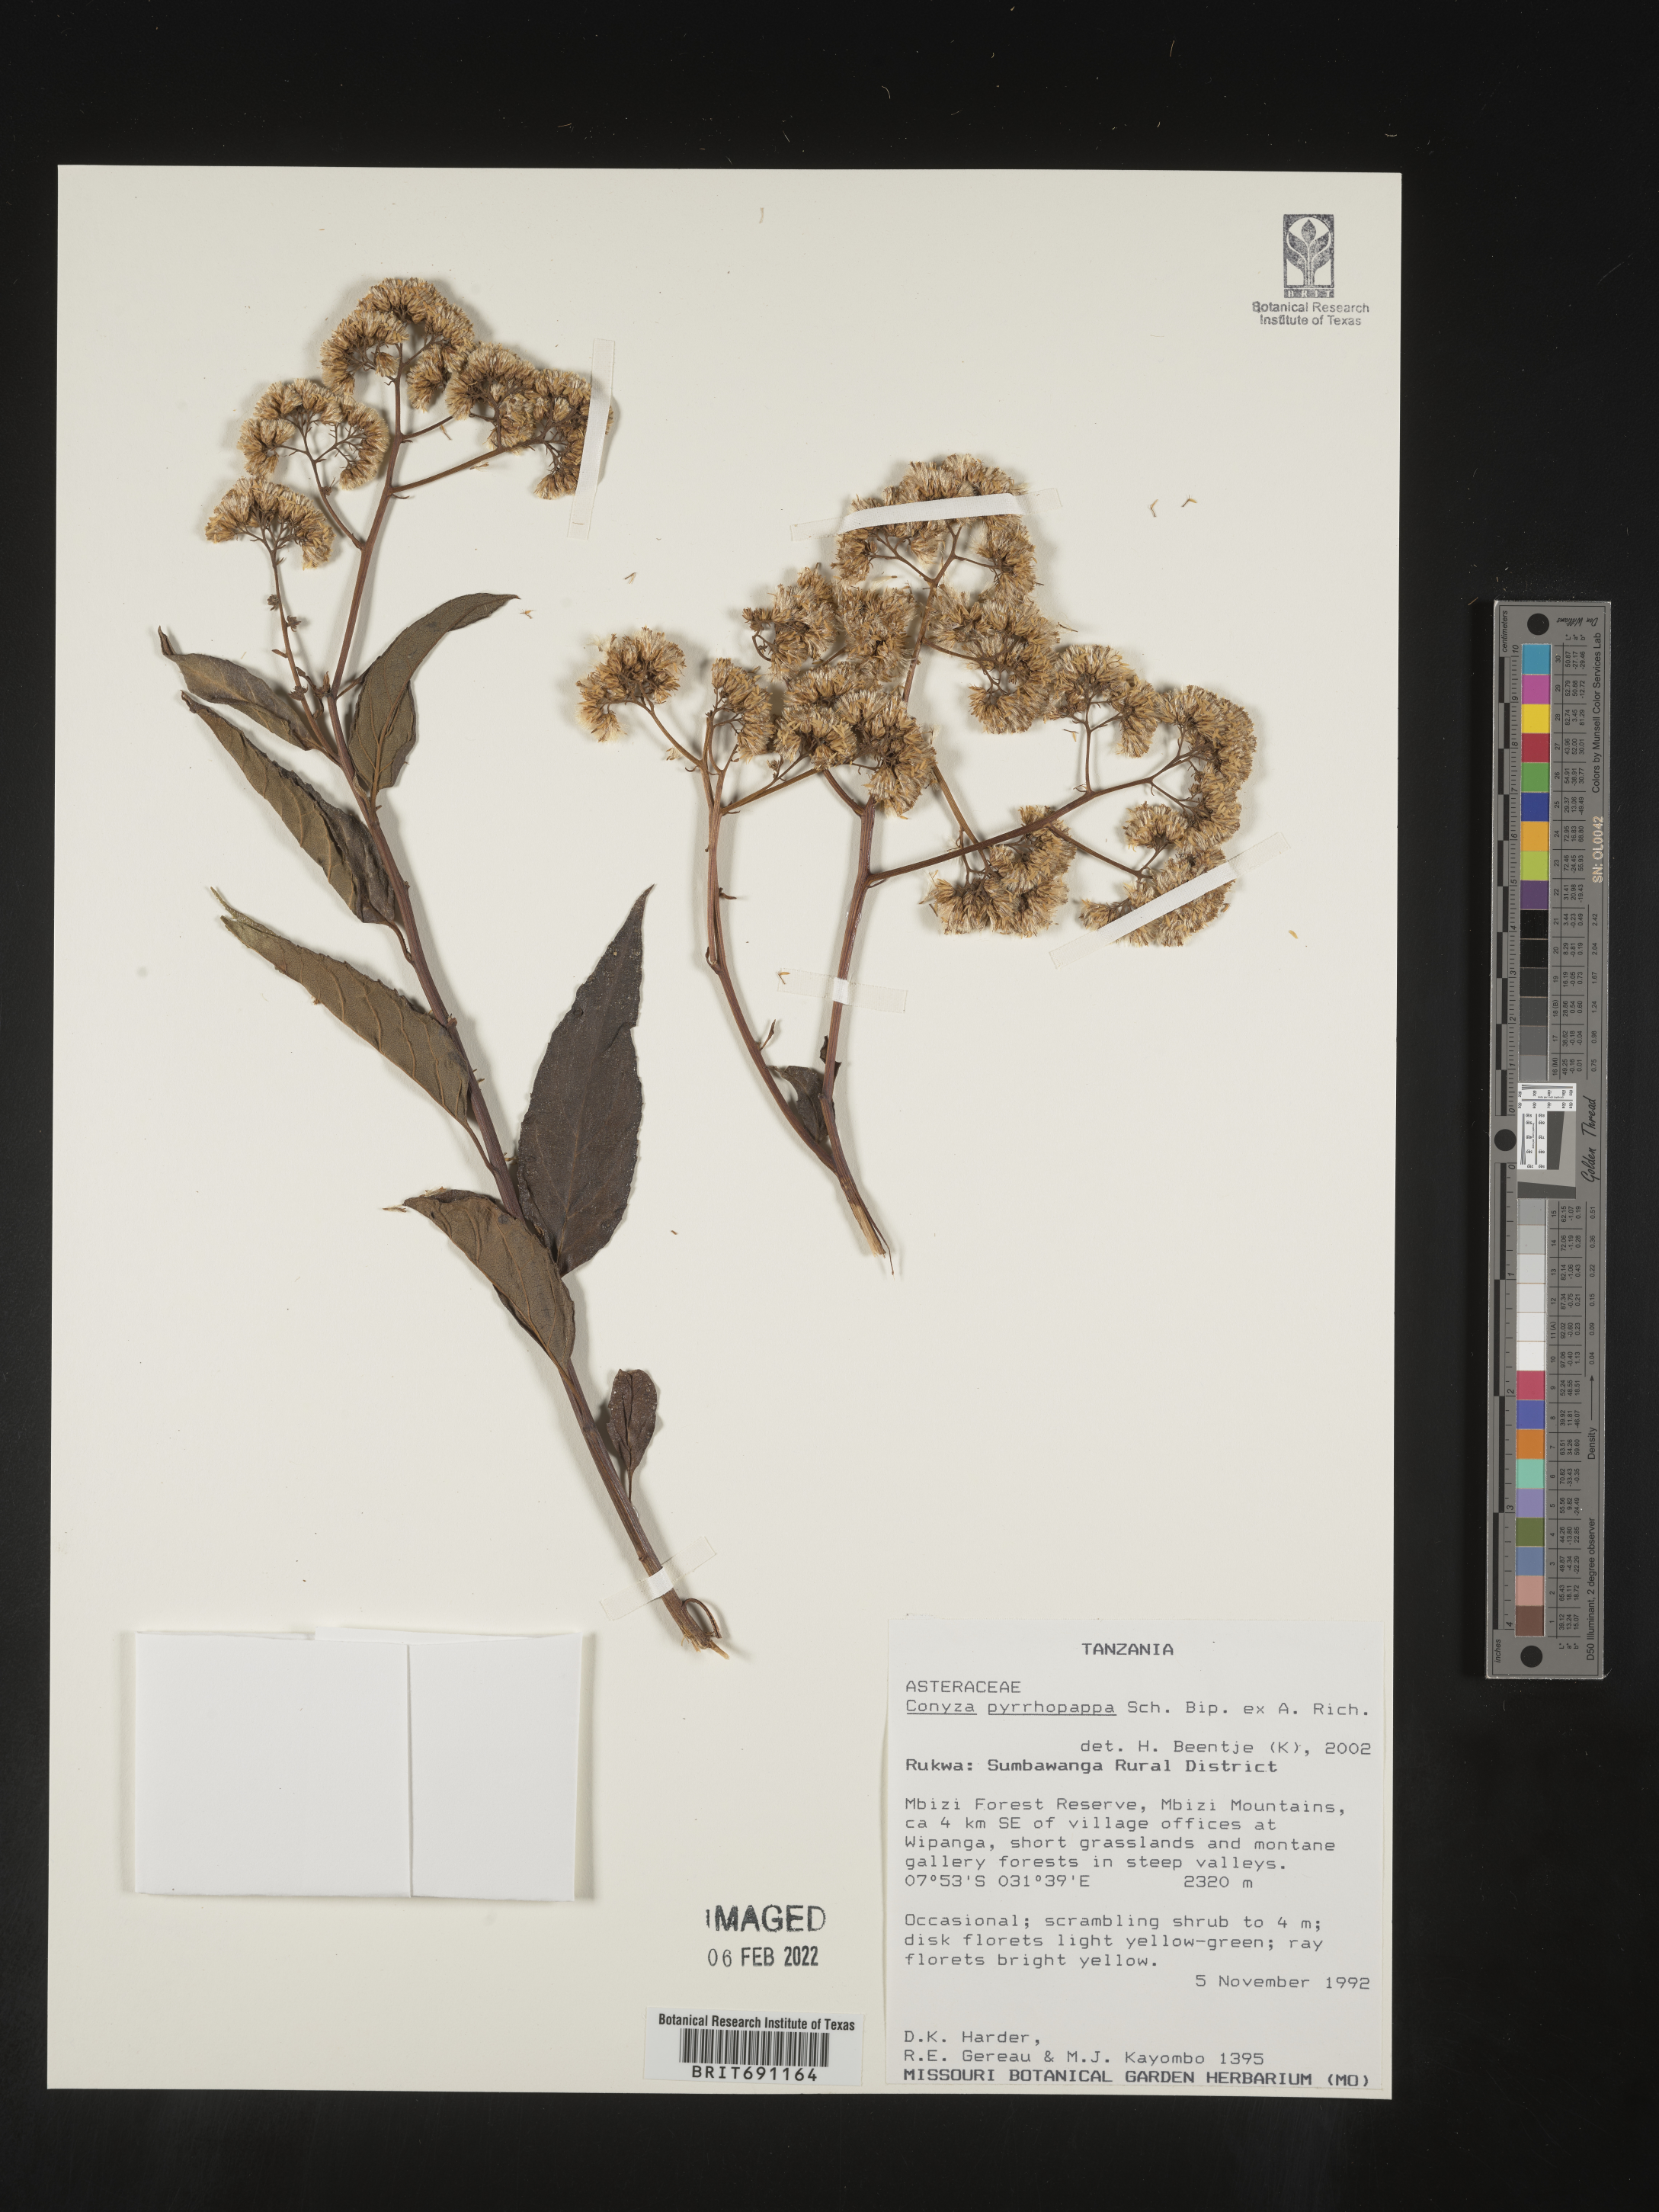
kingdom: Plantae
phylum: Tracheophyta
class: Magnoliopsida
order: Asterales
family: Asteraceae
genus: Conyza
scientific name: Conyza
